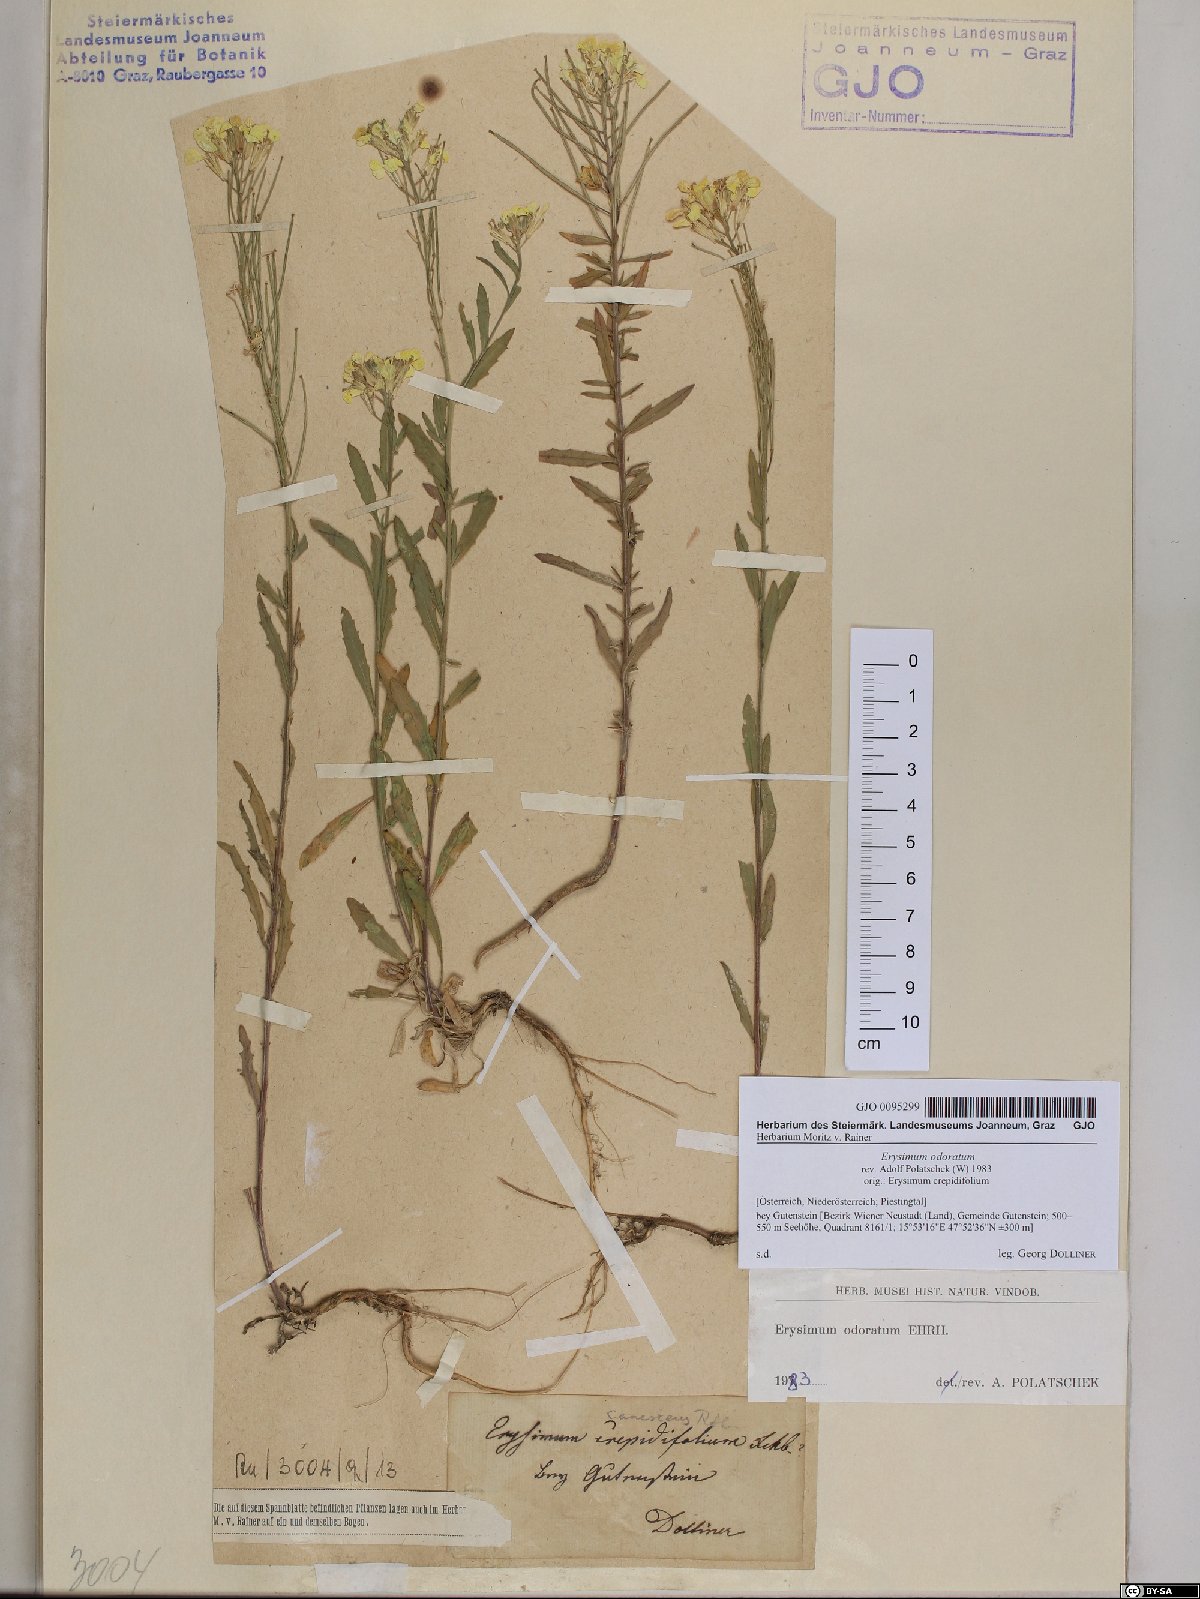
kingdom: Plantae
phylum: Tracheophyta
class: Magnoliopsida
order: Brassicales
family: Brassicaceae
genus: Erysimum
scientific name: Erysimum odoratum
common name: Smelly wallflower
